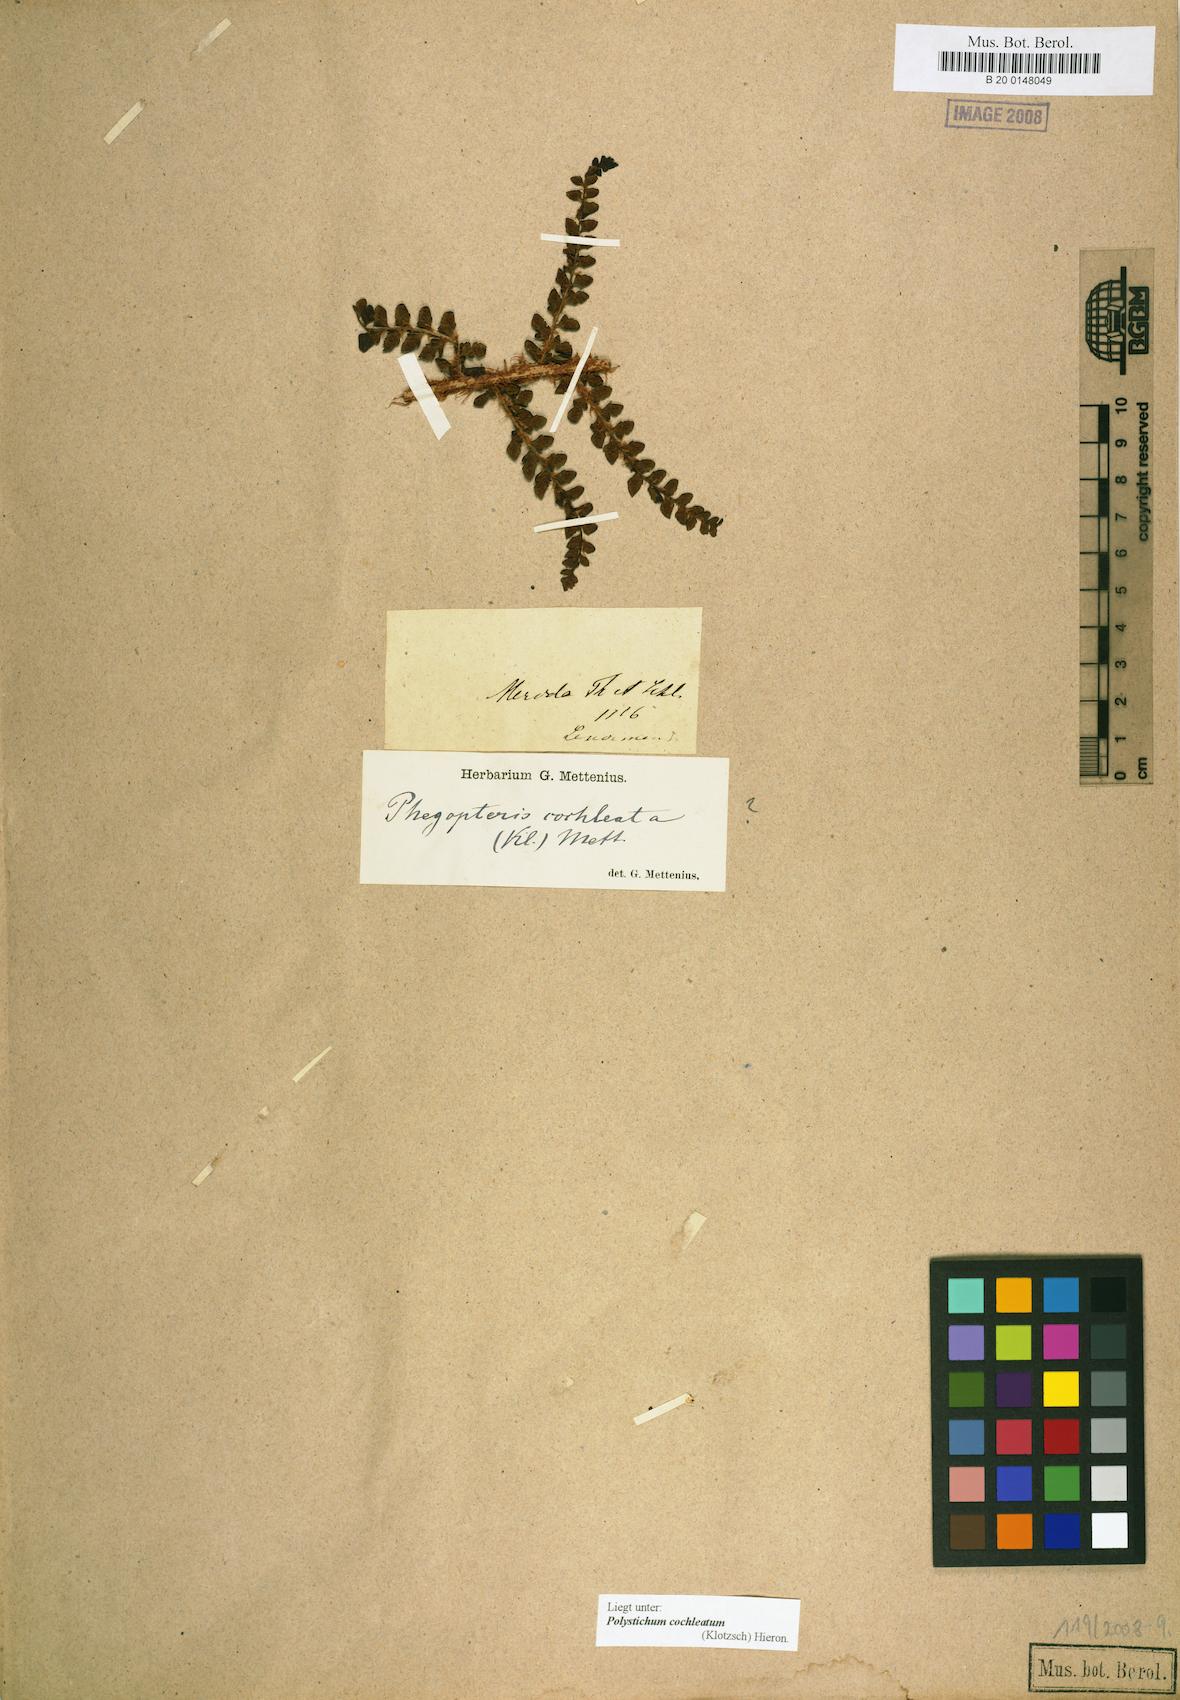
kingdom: Plantae
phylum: Tracheophyta
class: Polypodiopsida
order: Polypodiales
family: Dryopteridaceae
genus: Polystichum
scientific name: Polystichum cochleatum
